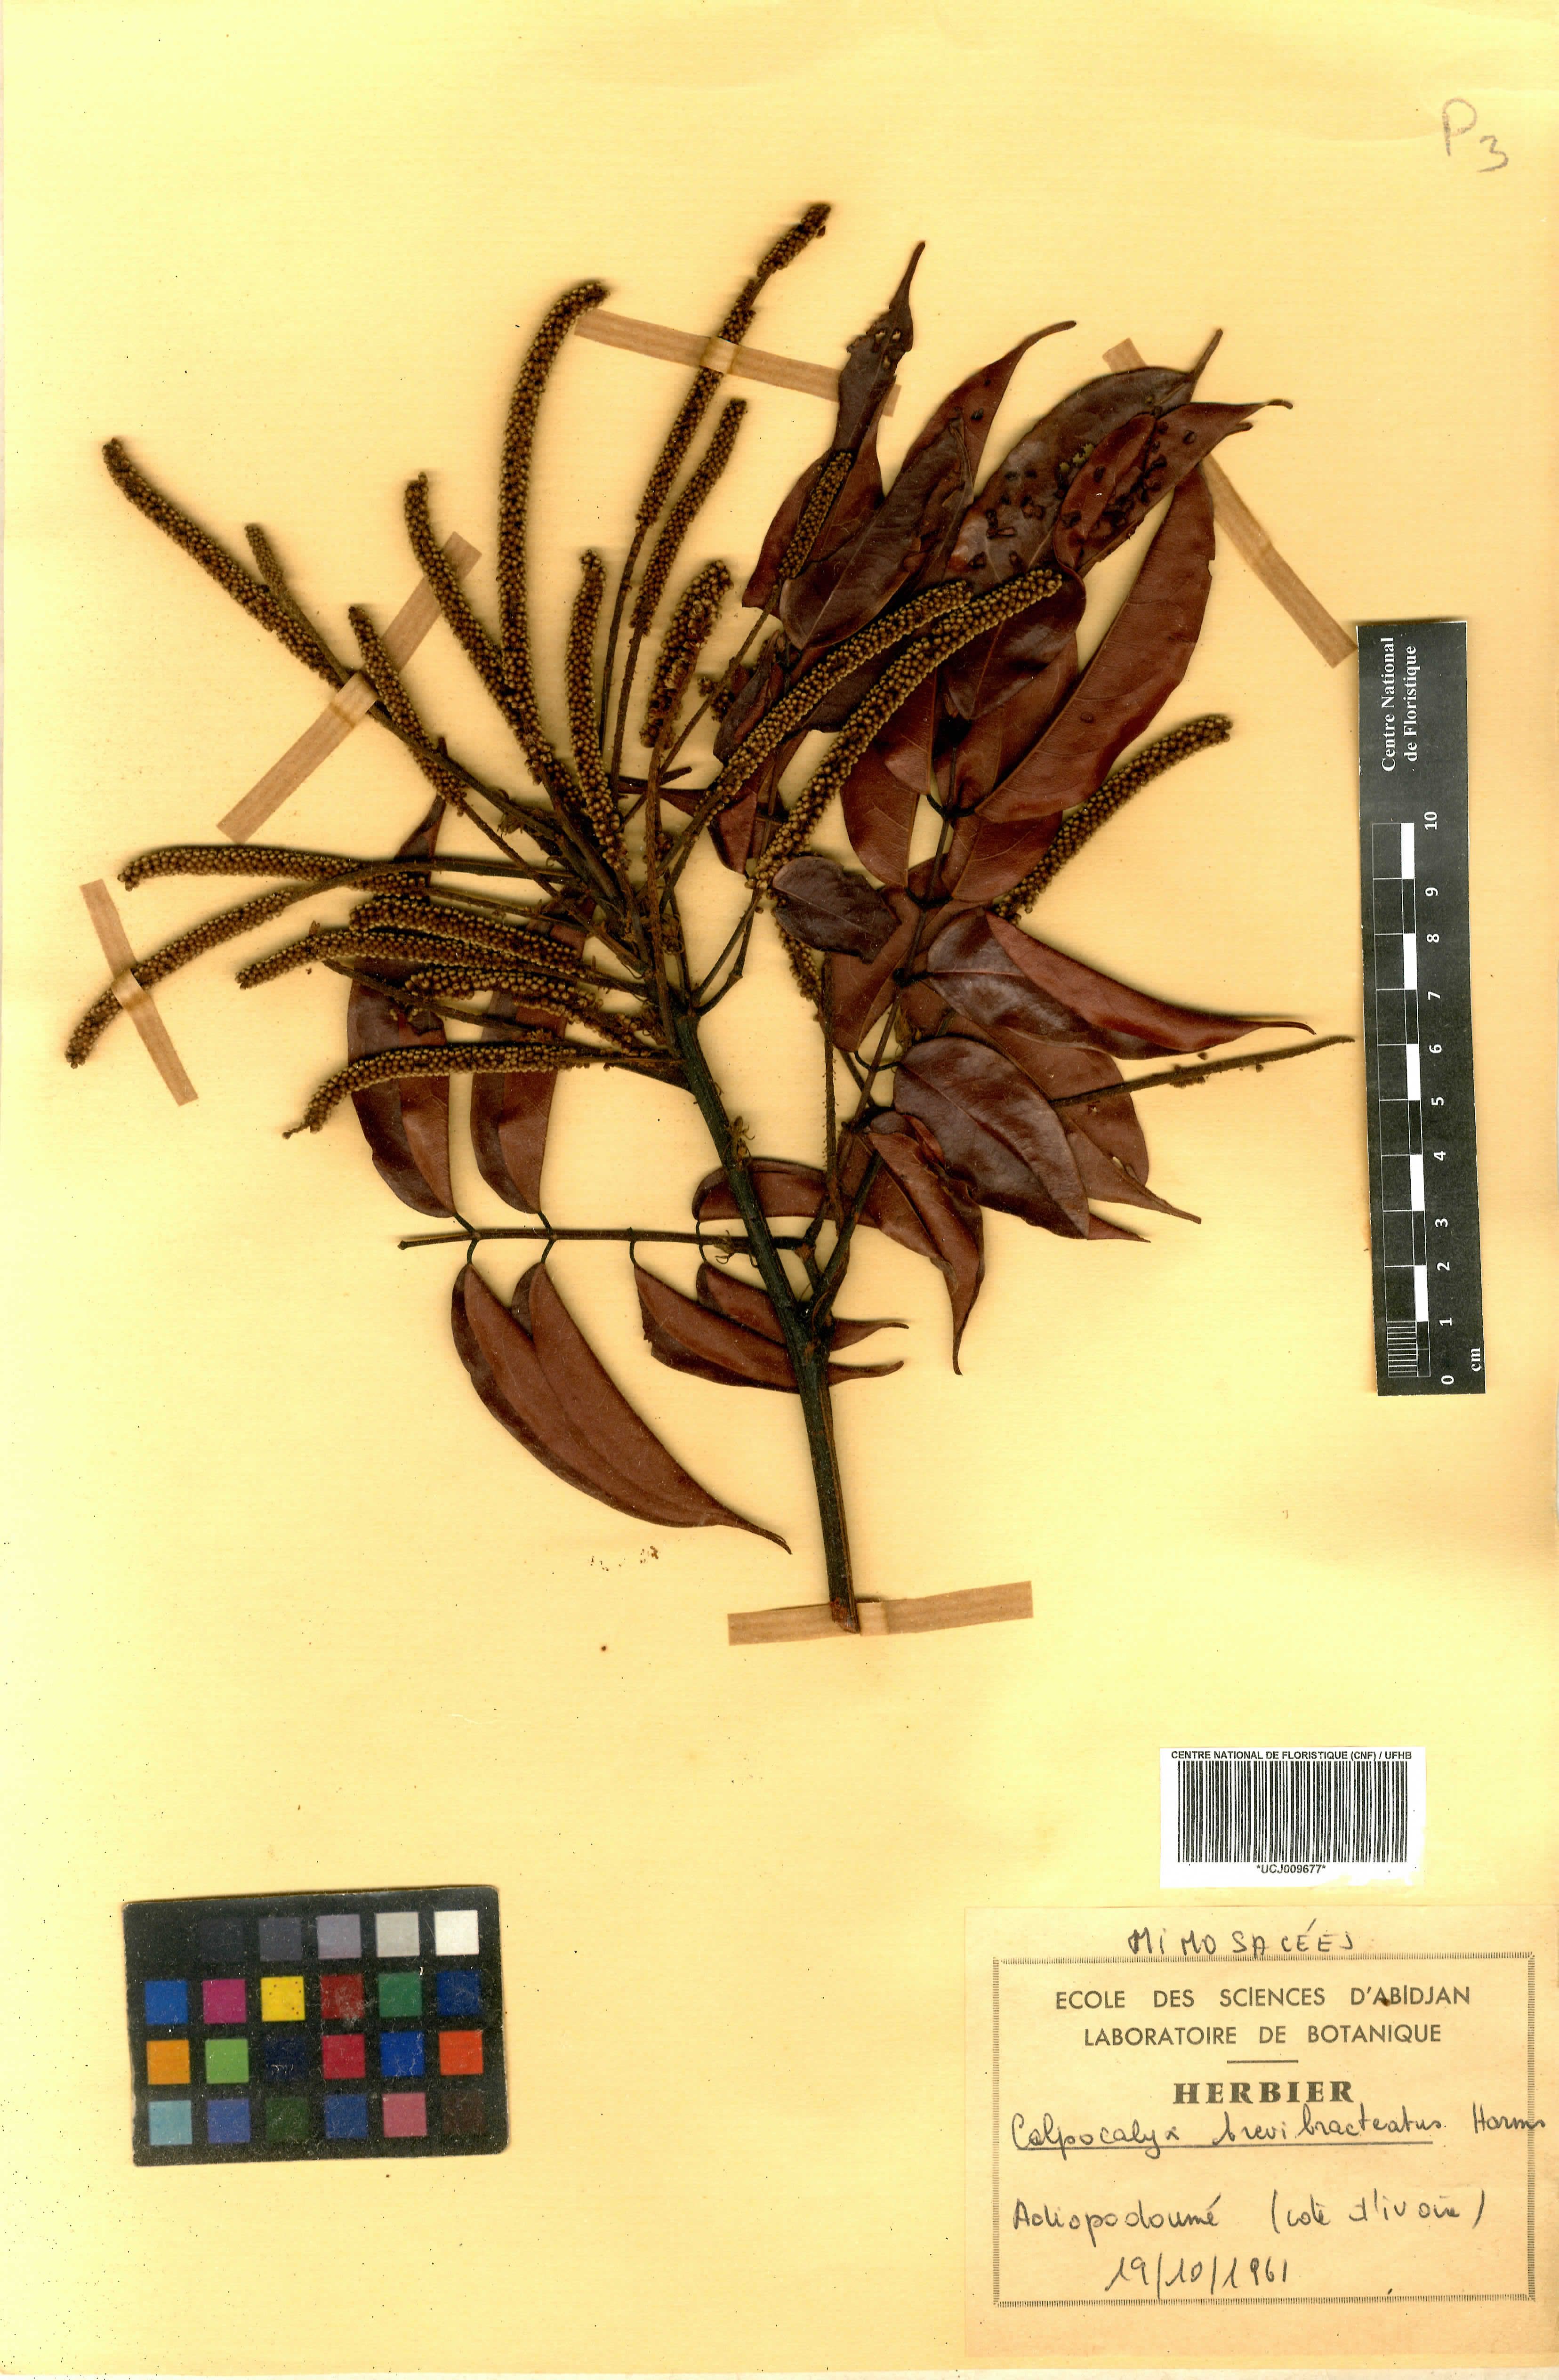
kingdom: Plantae
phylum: Tracheophyta
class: Magnoliopsida
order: Fabales
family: Fabaceae
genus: Calpocalyx
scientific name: Calpocalyx brevibracteatus
